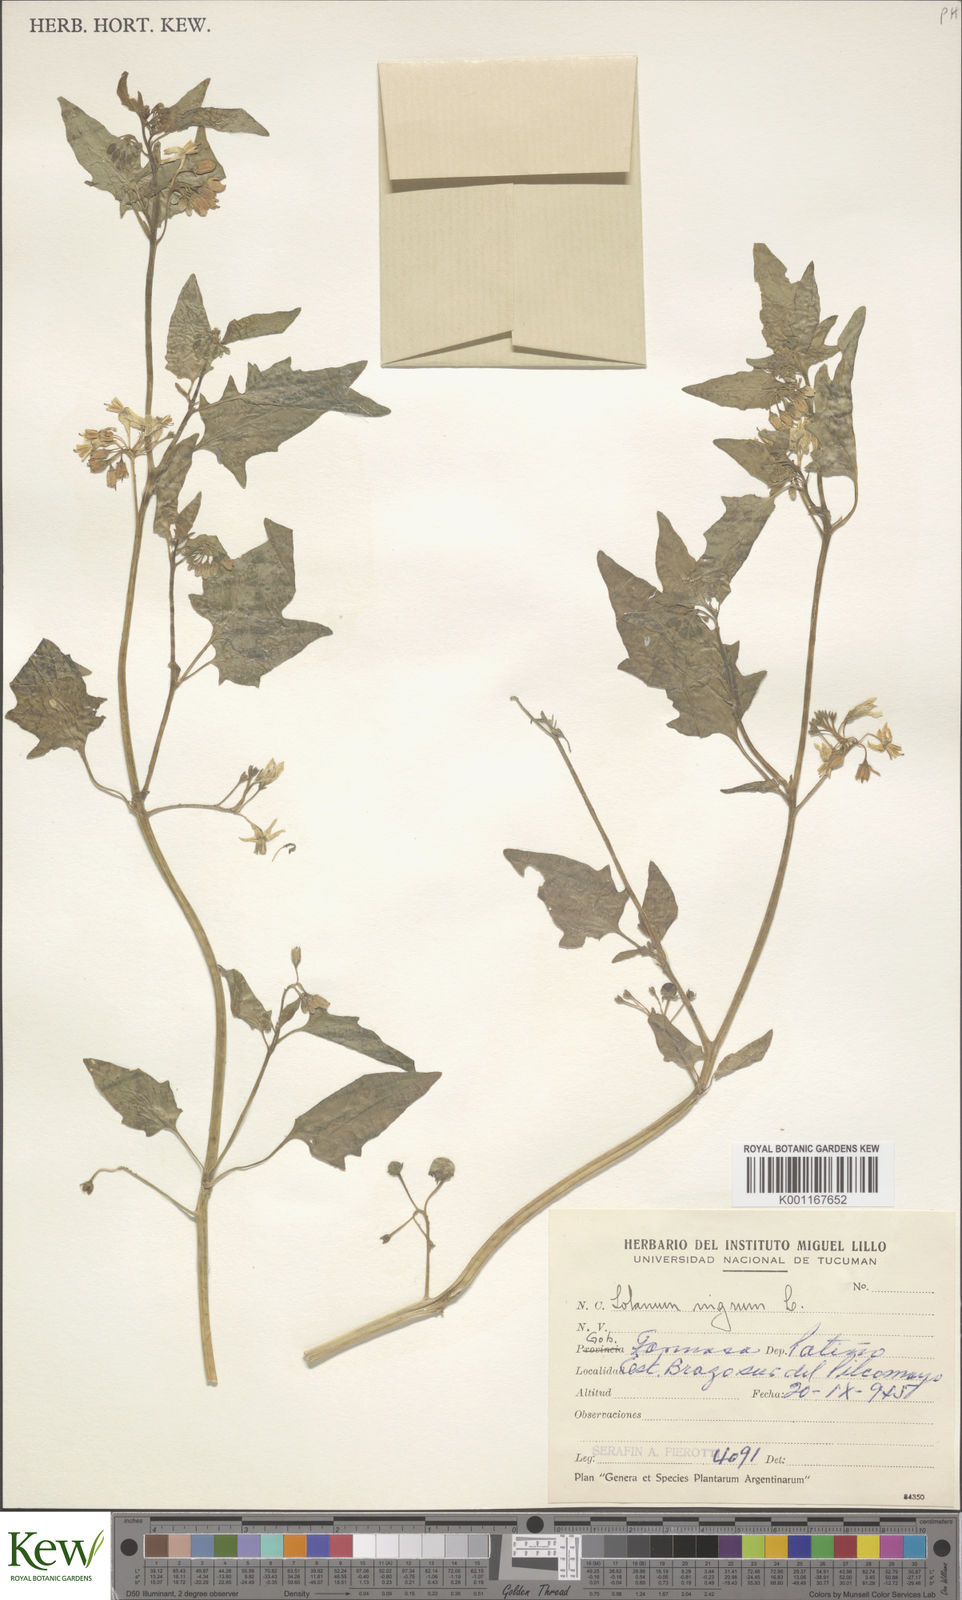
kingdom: Plantae
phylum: Tracheophyta
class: Magnoliopsida
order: Solanales
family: Solanaceae
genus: Solanum
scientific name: Solanum pilcomayense
